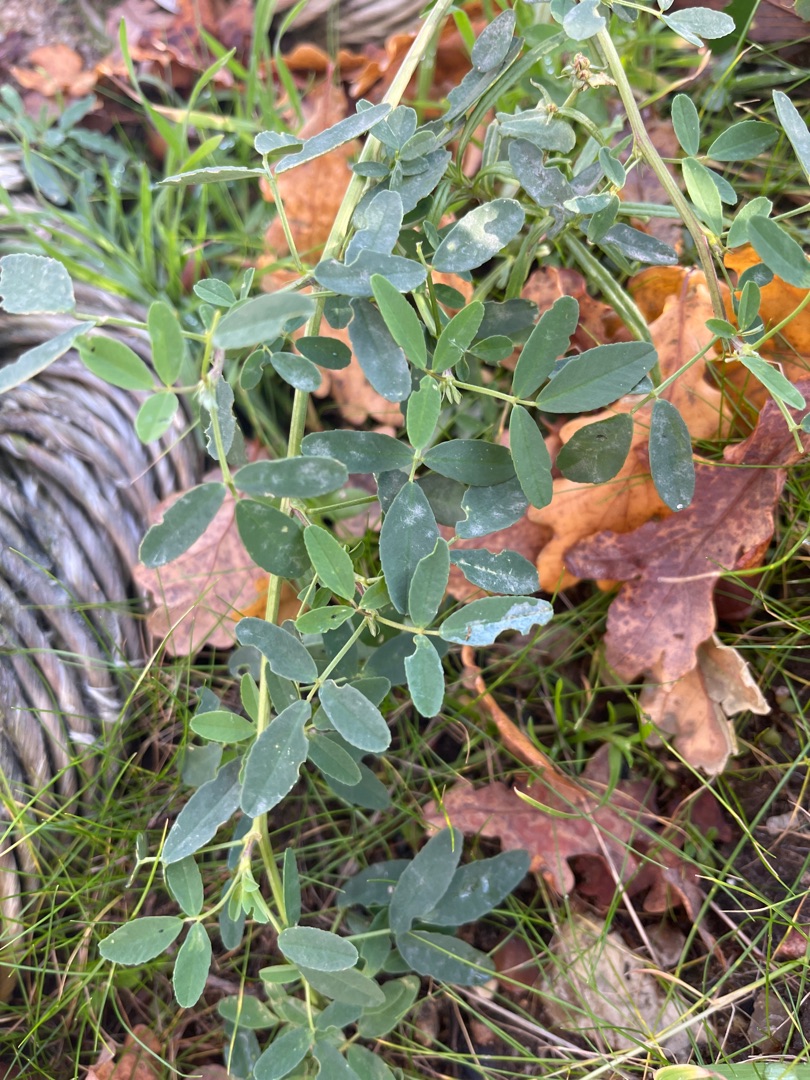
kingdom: Plantae
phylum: Tracheophyta
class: Magnoliopsida
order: Fabales
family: Fabaceae
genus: Medicago
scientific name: Medicago sativa
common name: Lucerne
